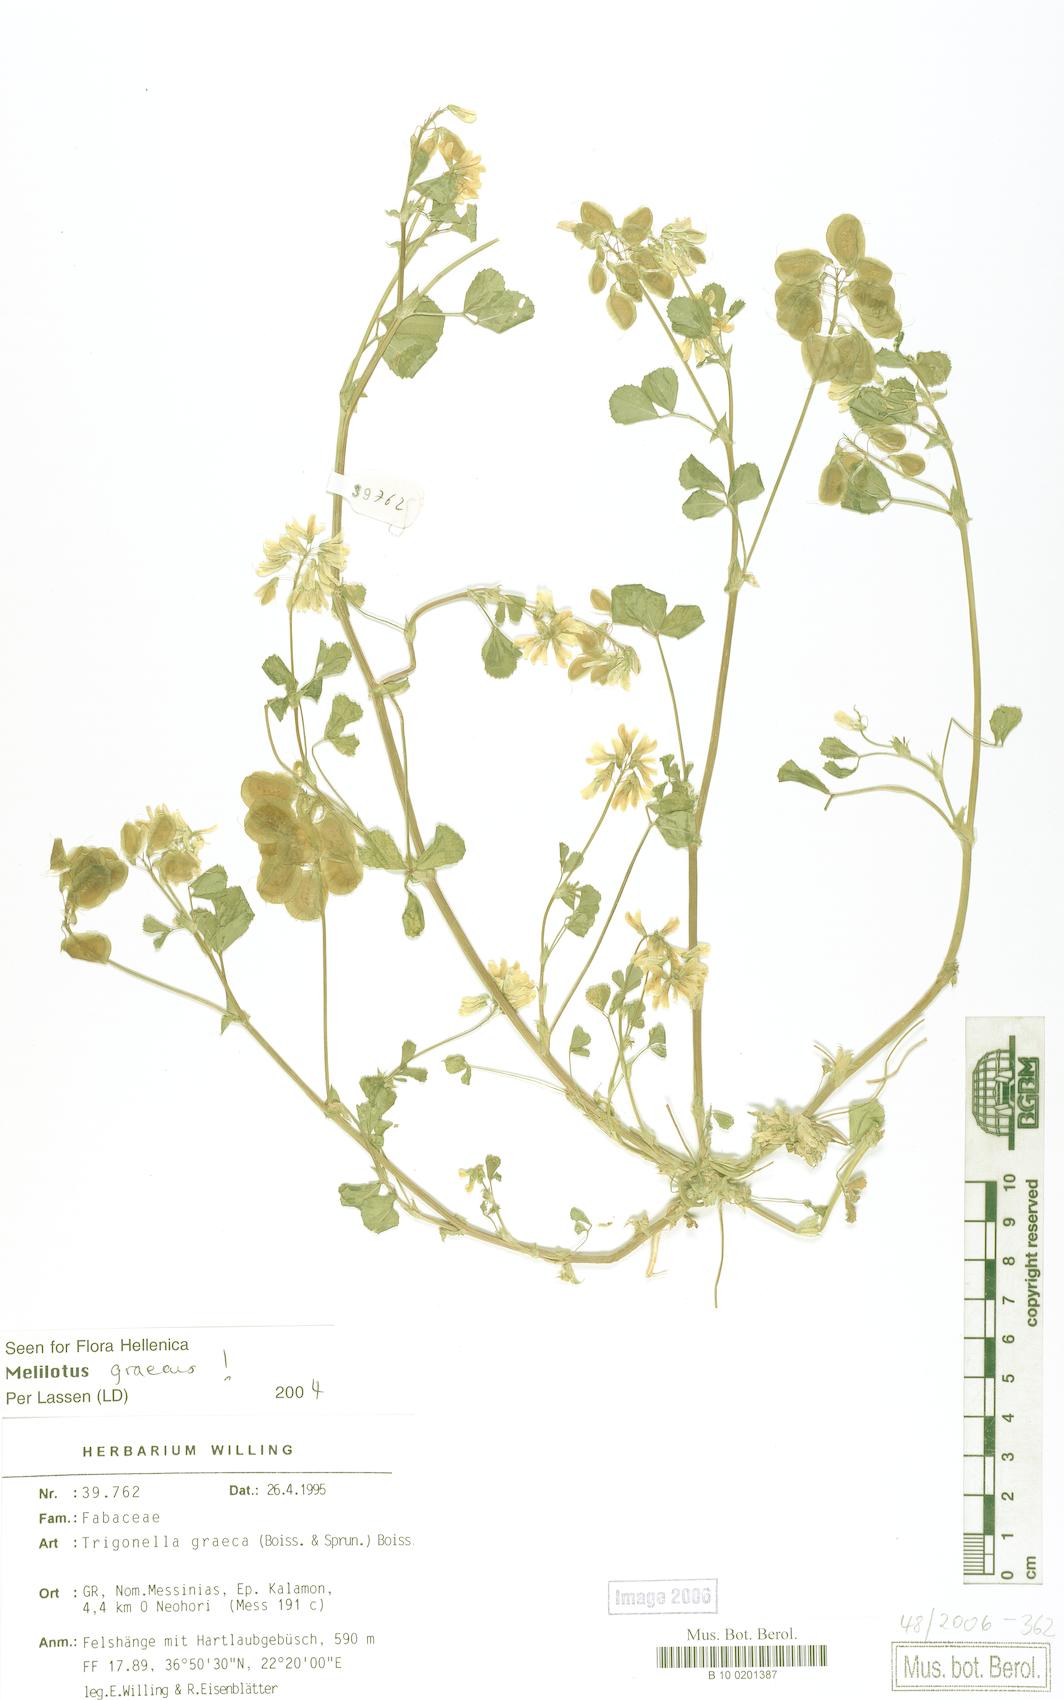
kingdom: Plantae
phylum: Tracheophyta
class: Magnoliopsida
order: Fabales
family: Fabaceae
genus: Trigonella
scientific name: Trigonella graeca
